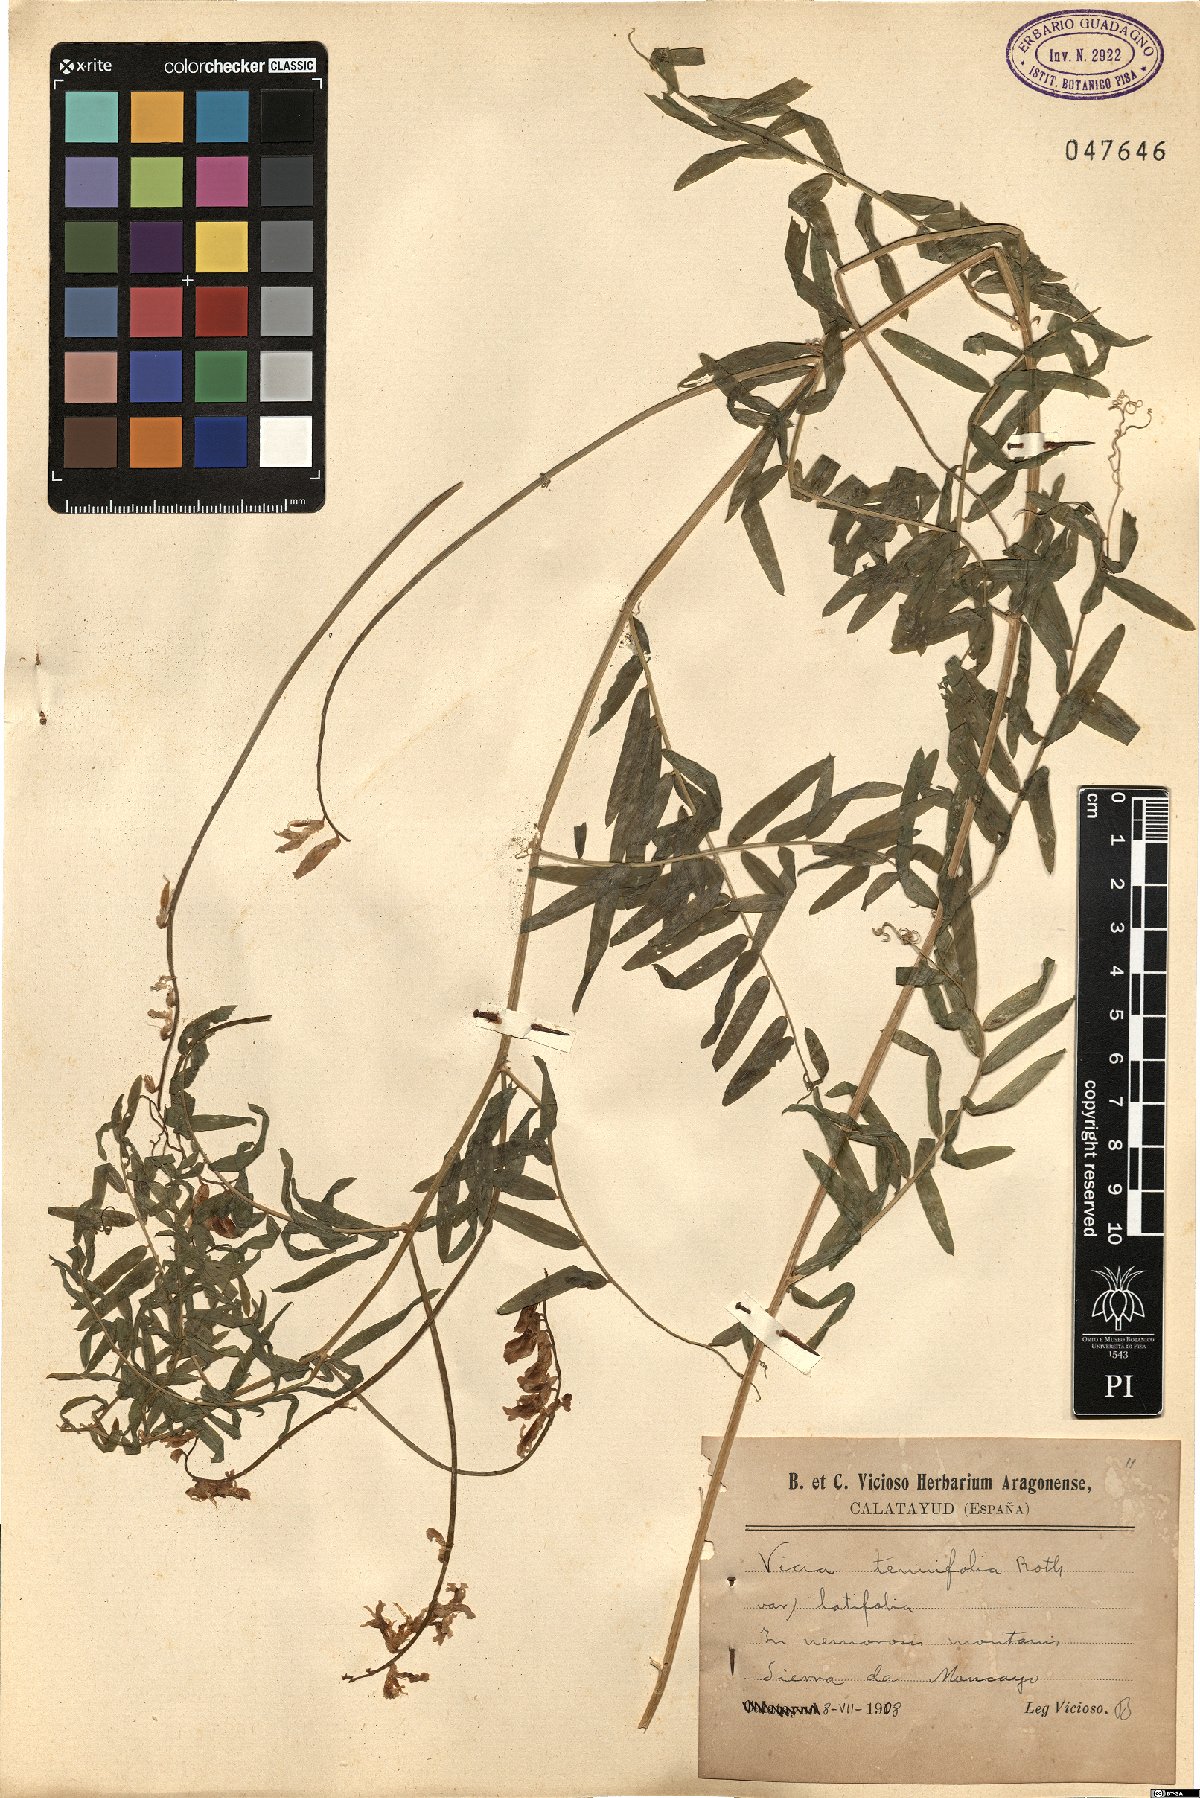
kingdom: Plantae
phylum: Tracheophyta
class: Magnoliopsida
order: Fabales
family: Fabaceae
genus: Vicia
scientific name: Vicia tenuifolia
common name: Fine-leaved vetch
